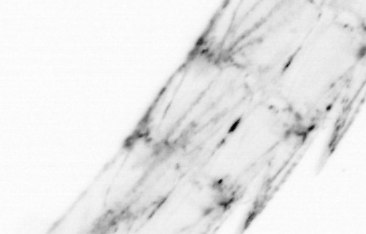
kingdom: Animalia
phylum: Chordata
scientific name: Chordata
